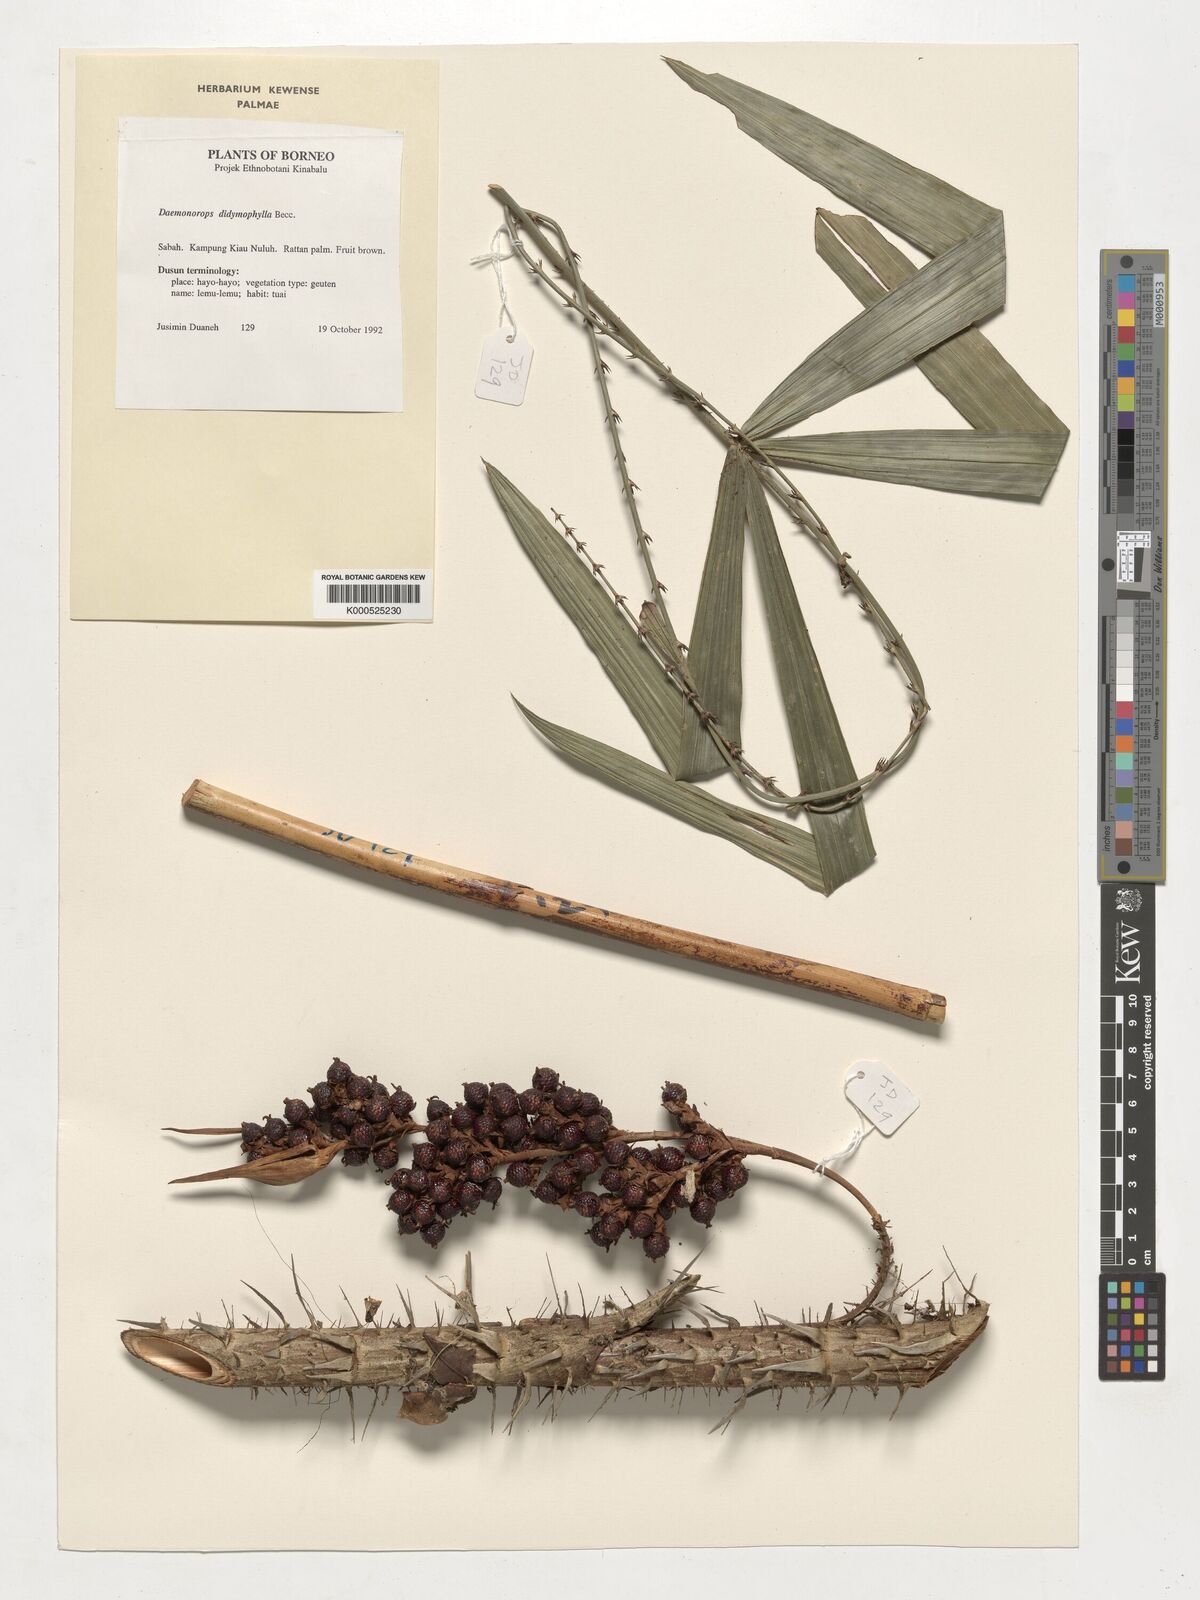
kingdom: Plantae
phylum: Tracheophyta
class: Liliopsida
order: Arecales
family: Arecaceae
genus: Calamus
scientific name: Calamus gracilipes
